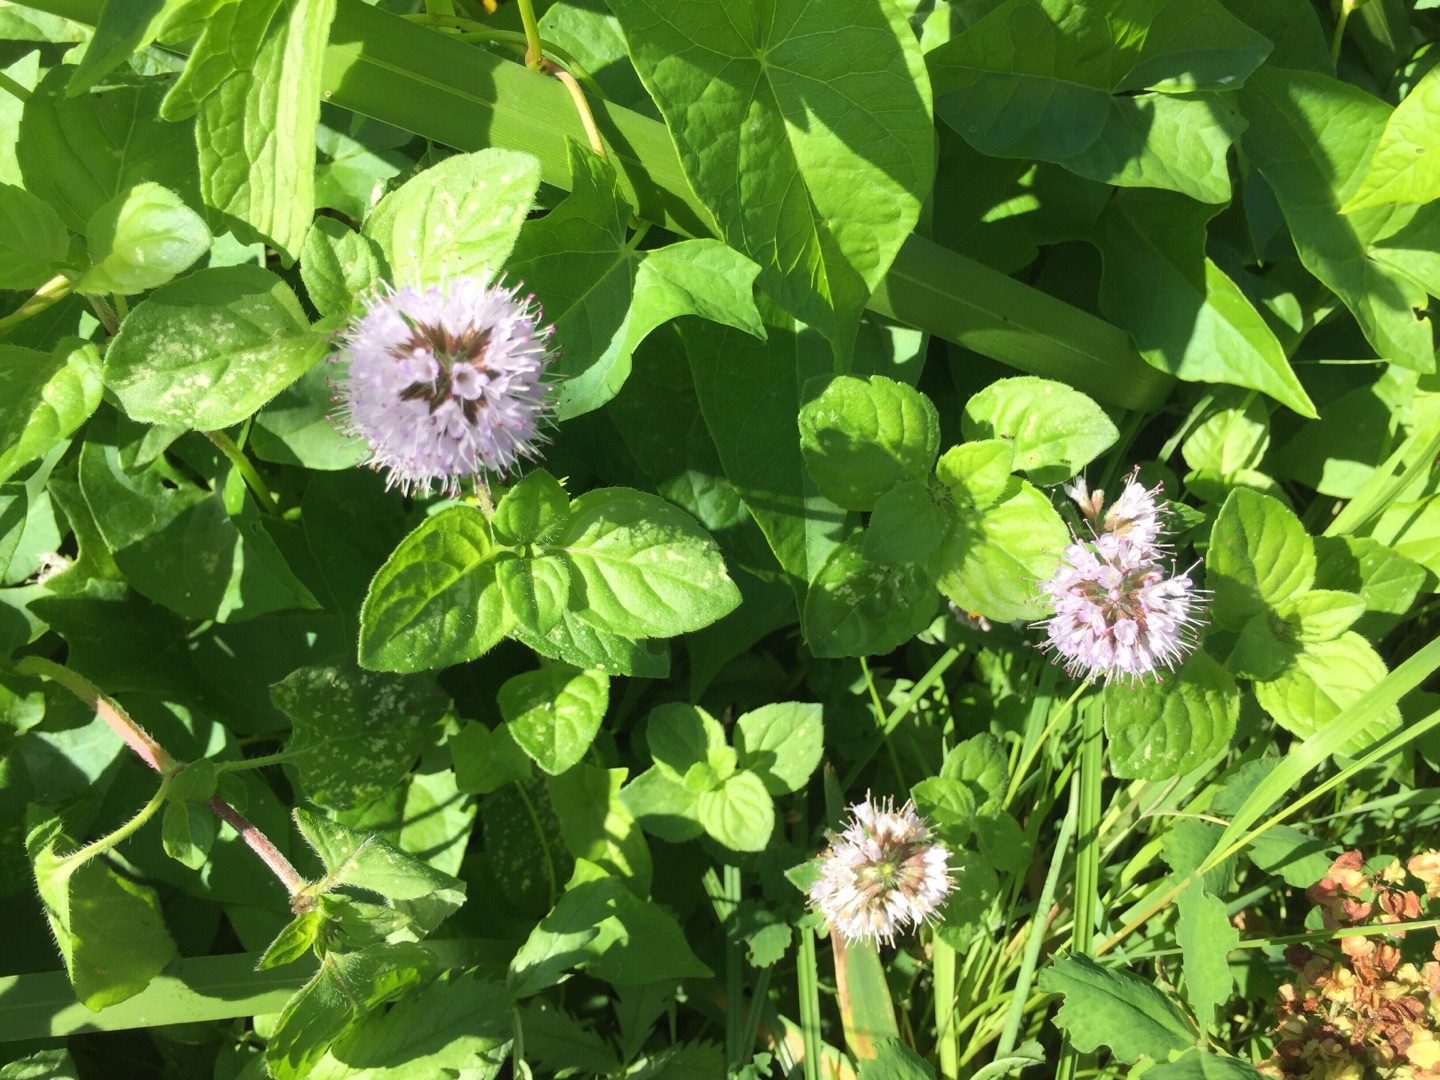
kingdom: Plantae
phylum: Tracheophyta
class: Magnoliopsida
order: Lamiales
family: Lamiaceae
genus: Mentha
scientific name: Mentha aquatica
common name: Vand-mynte
